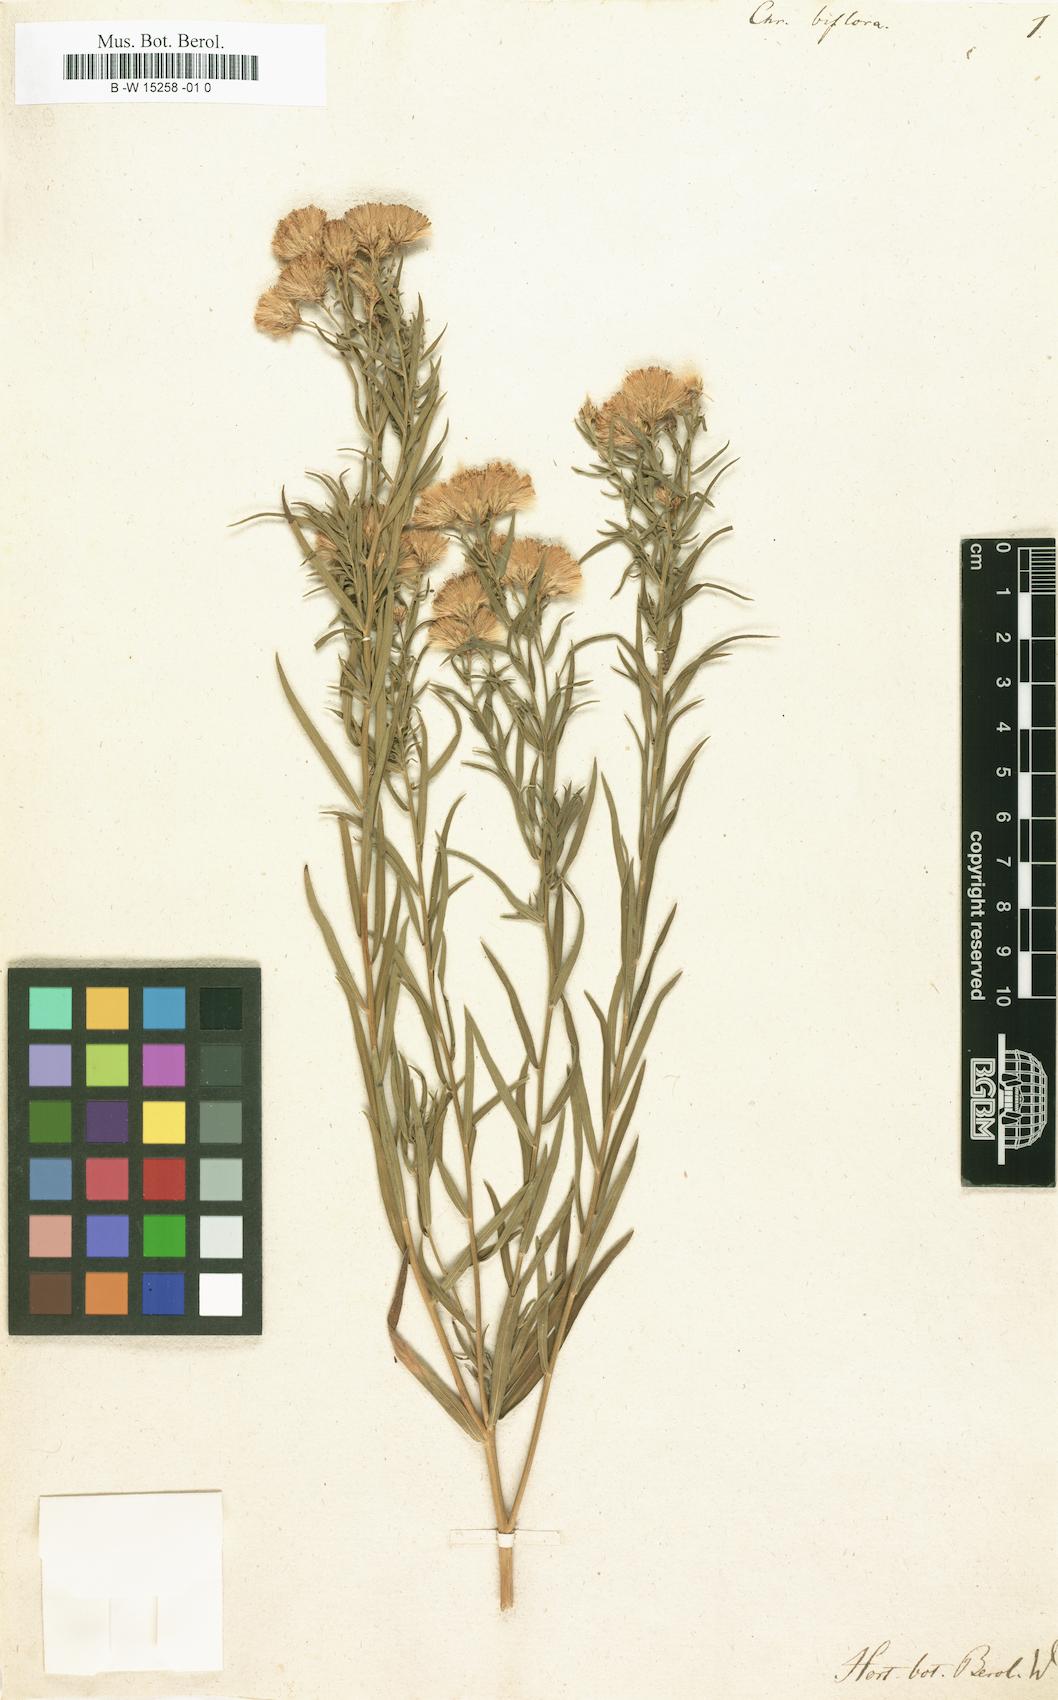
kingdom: Plantae
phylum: Tracheophyta
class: Magnoliopsida
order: Asterales
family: Asteraceae
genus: Galatella
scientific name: Galatella biflora
